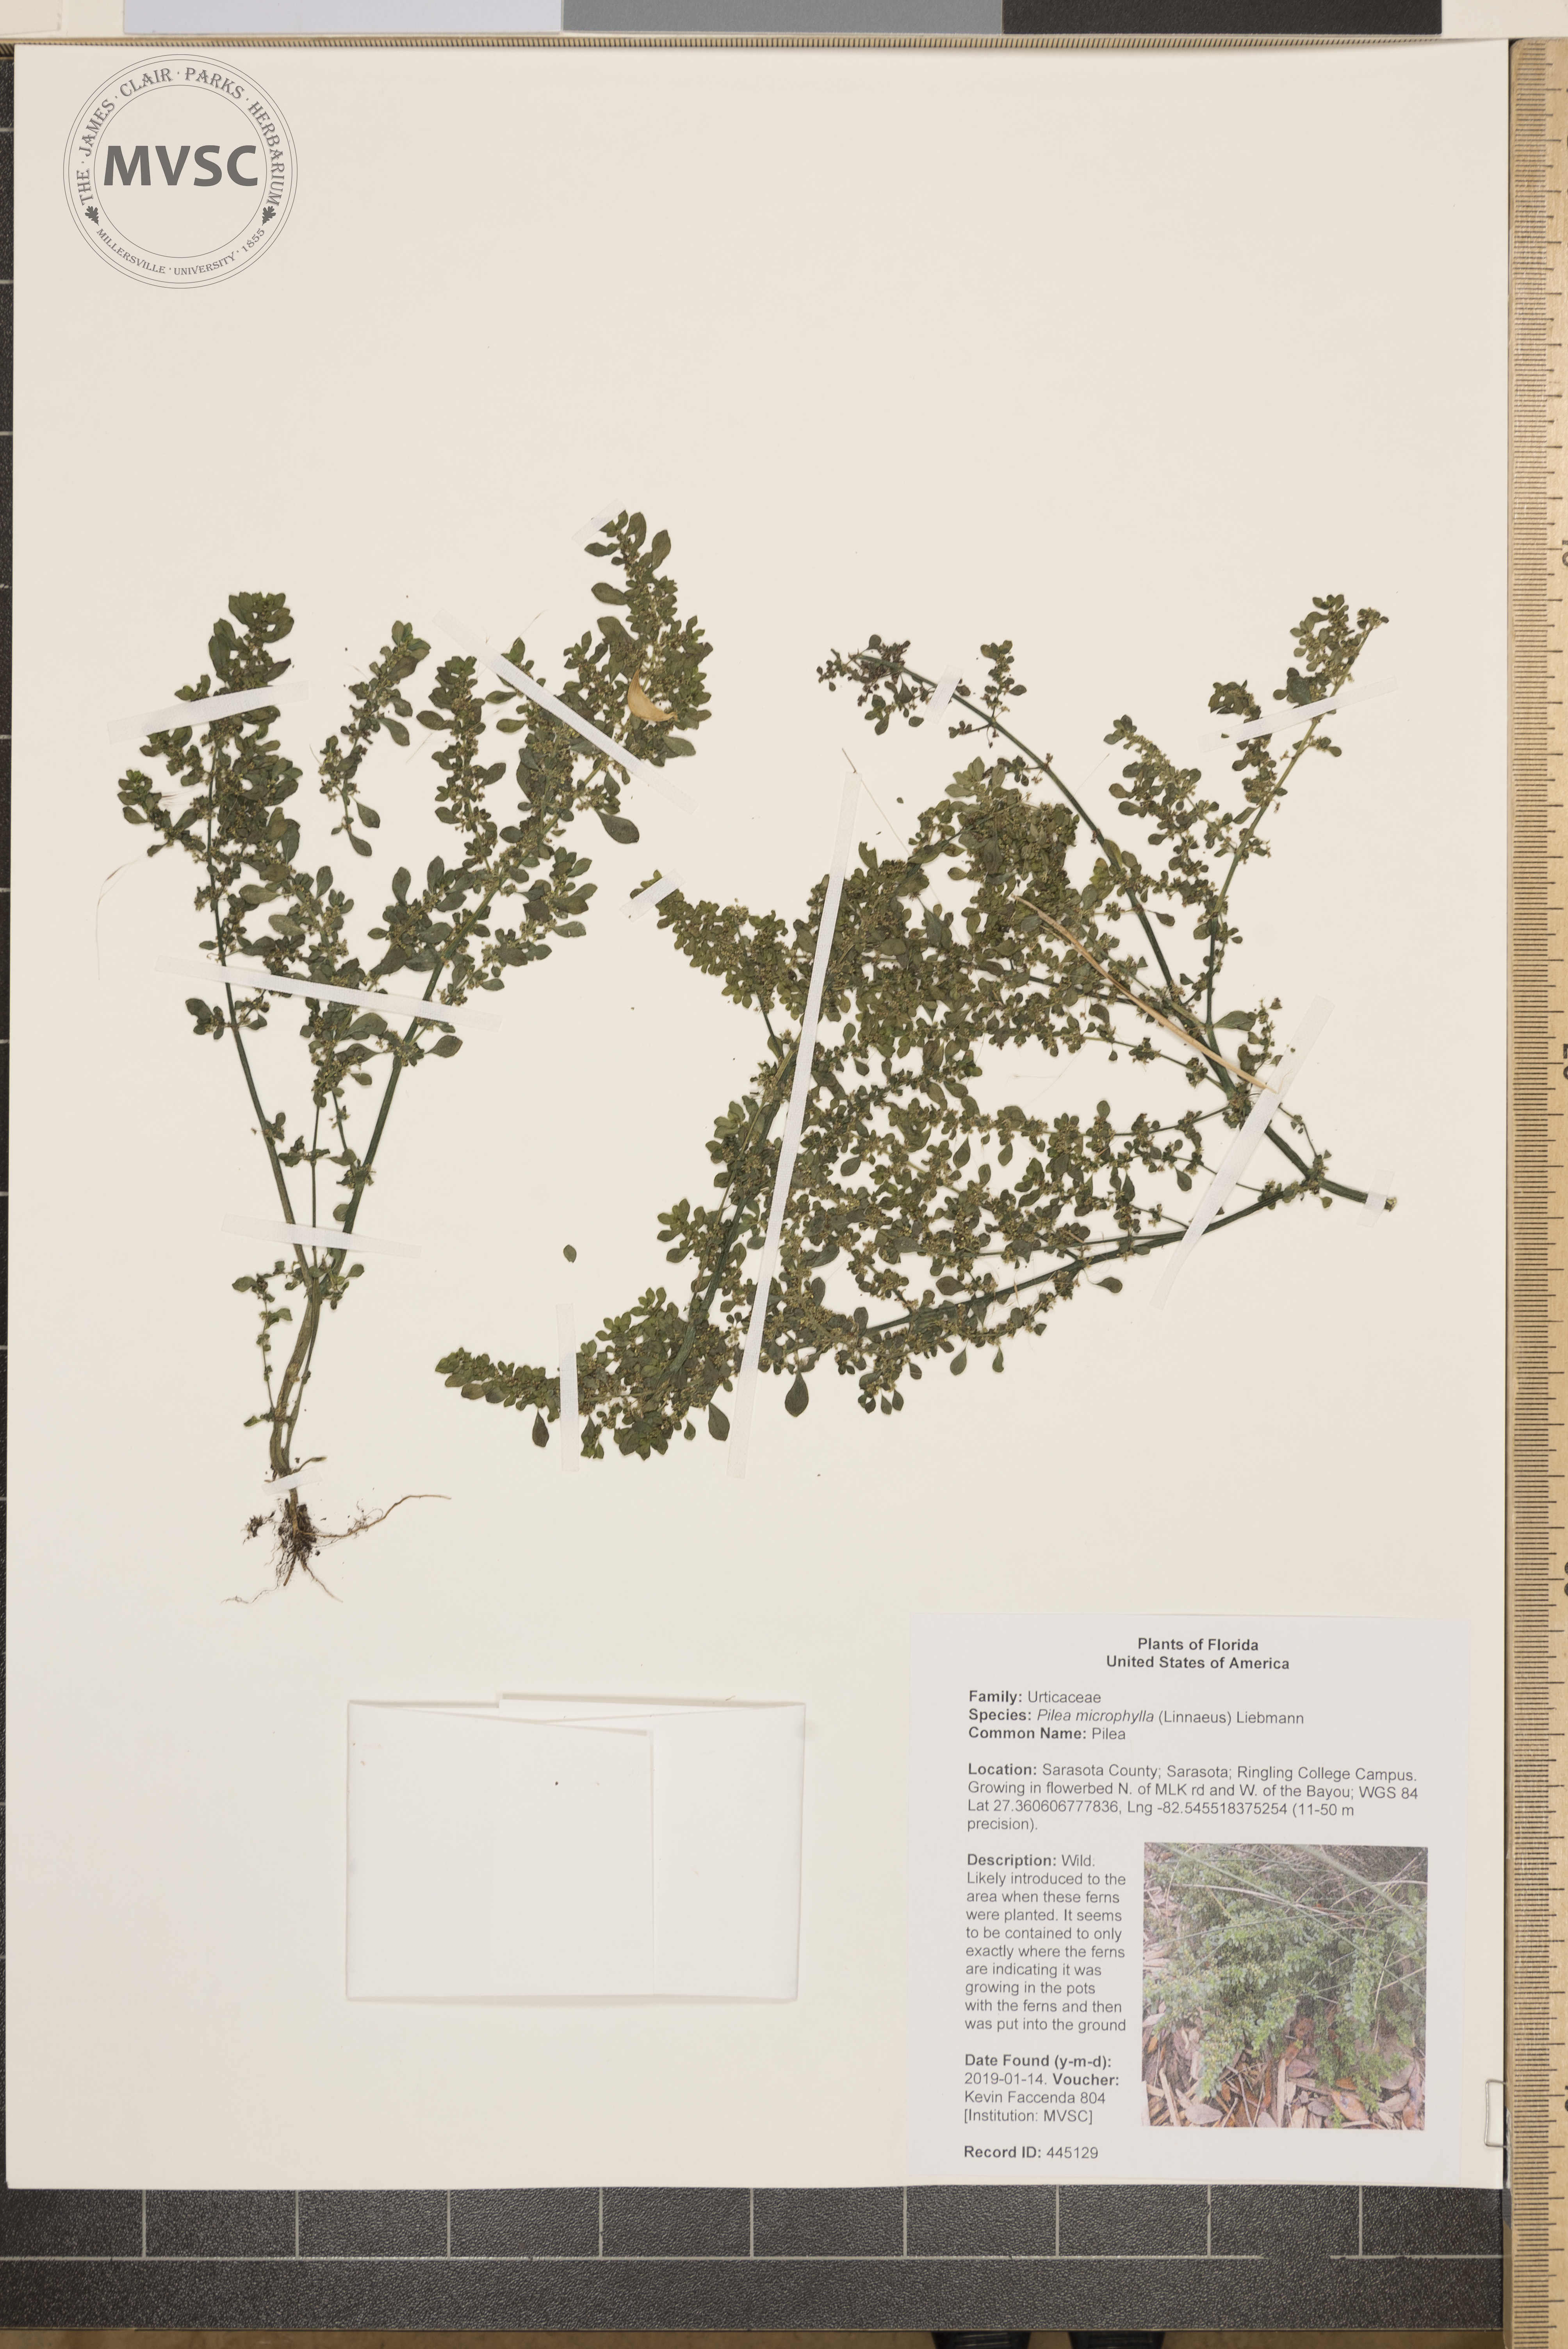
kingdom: Plantae
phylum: Tracheophyta
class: Magnoliopsida
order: Rosales
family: Urticaceae
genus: Pilea
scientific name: Pilea microphylla
